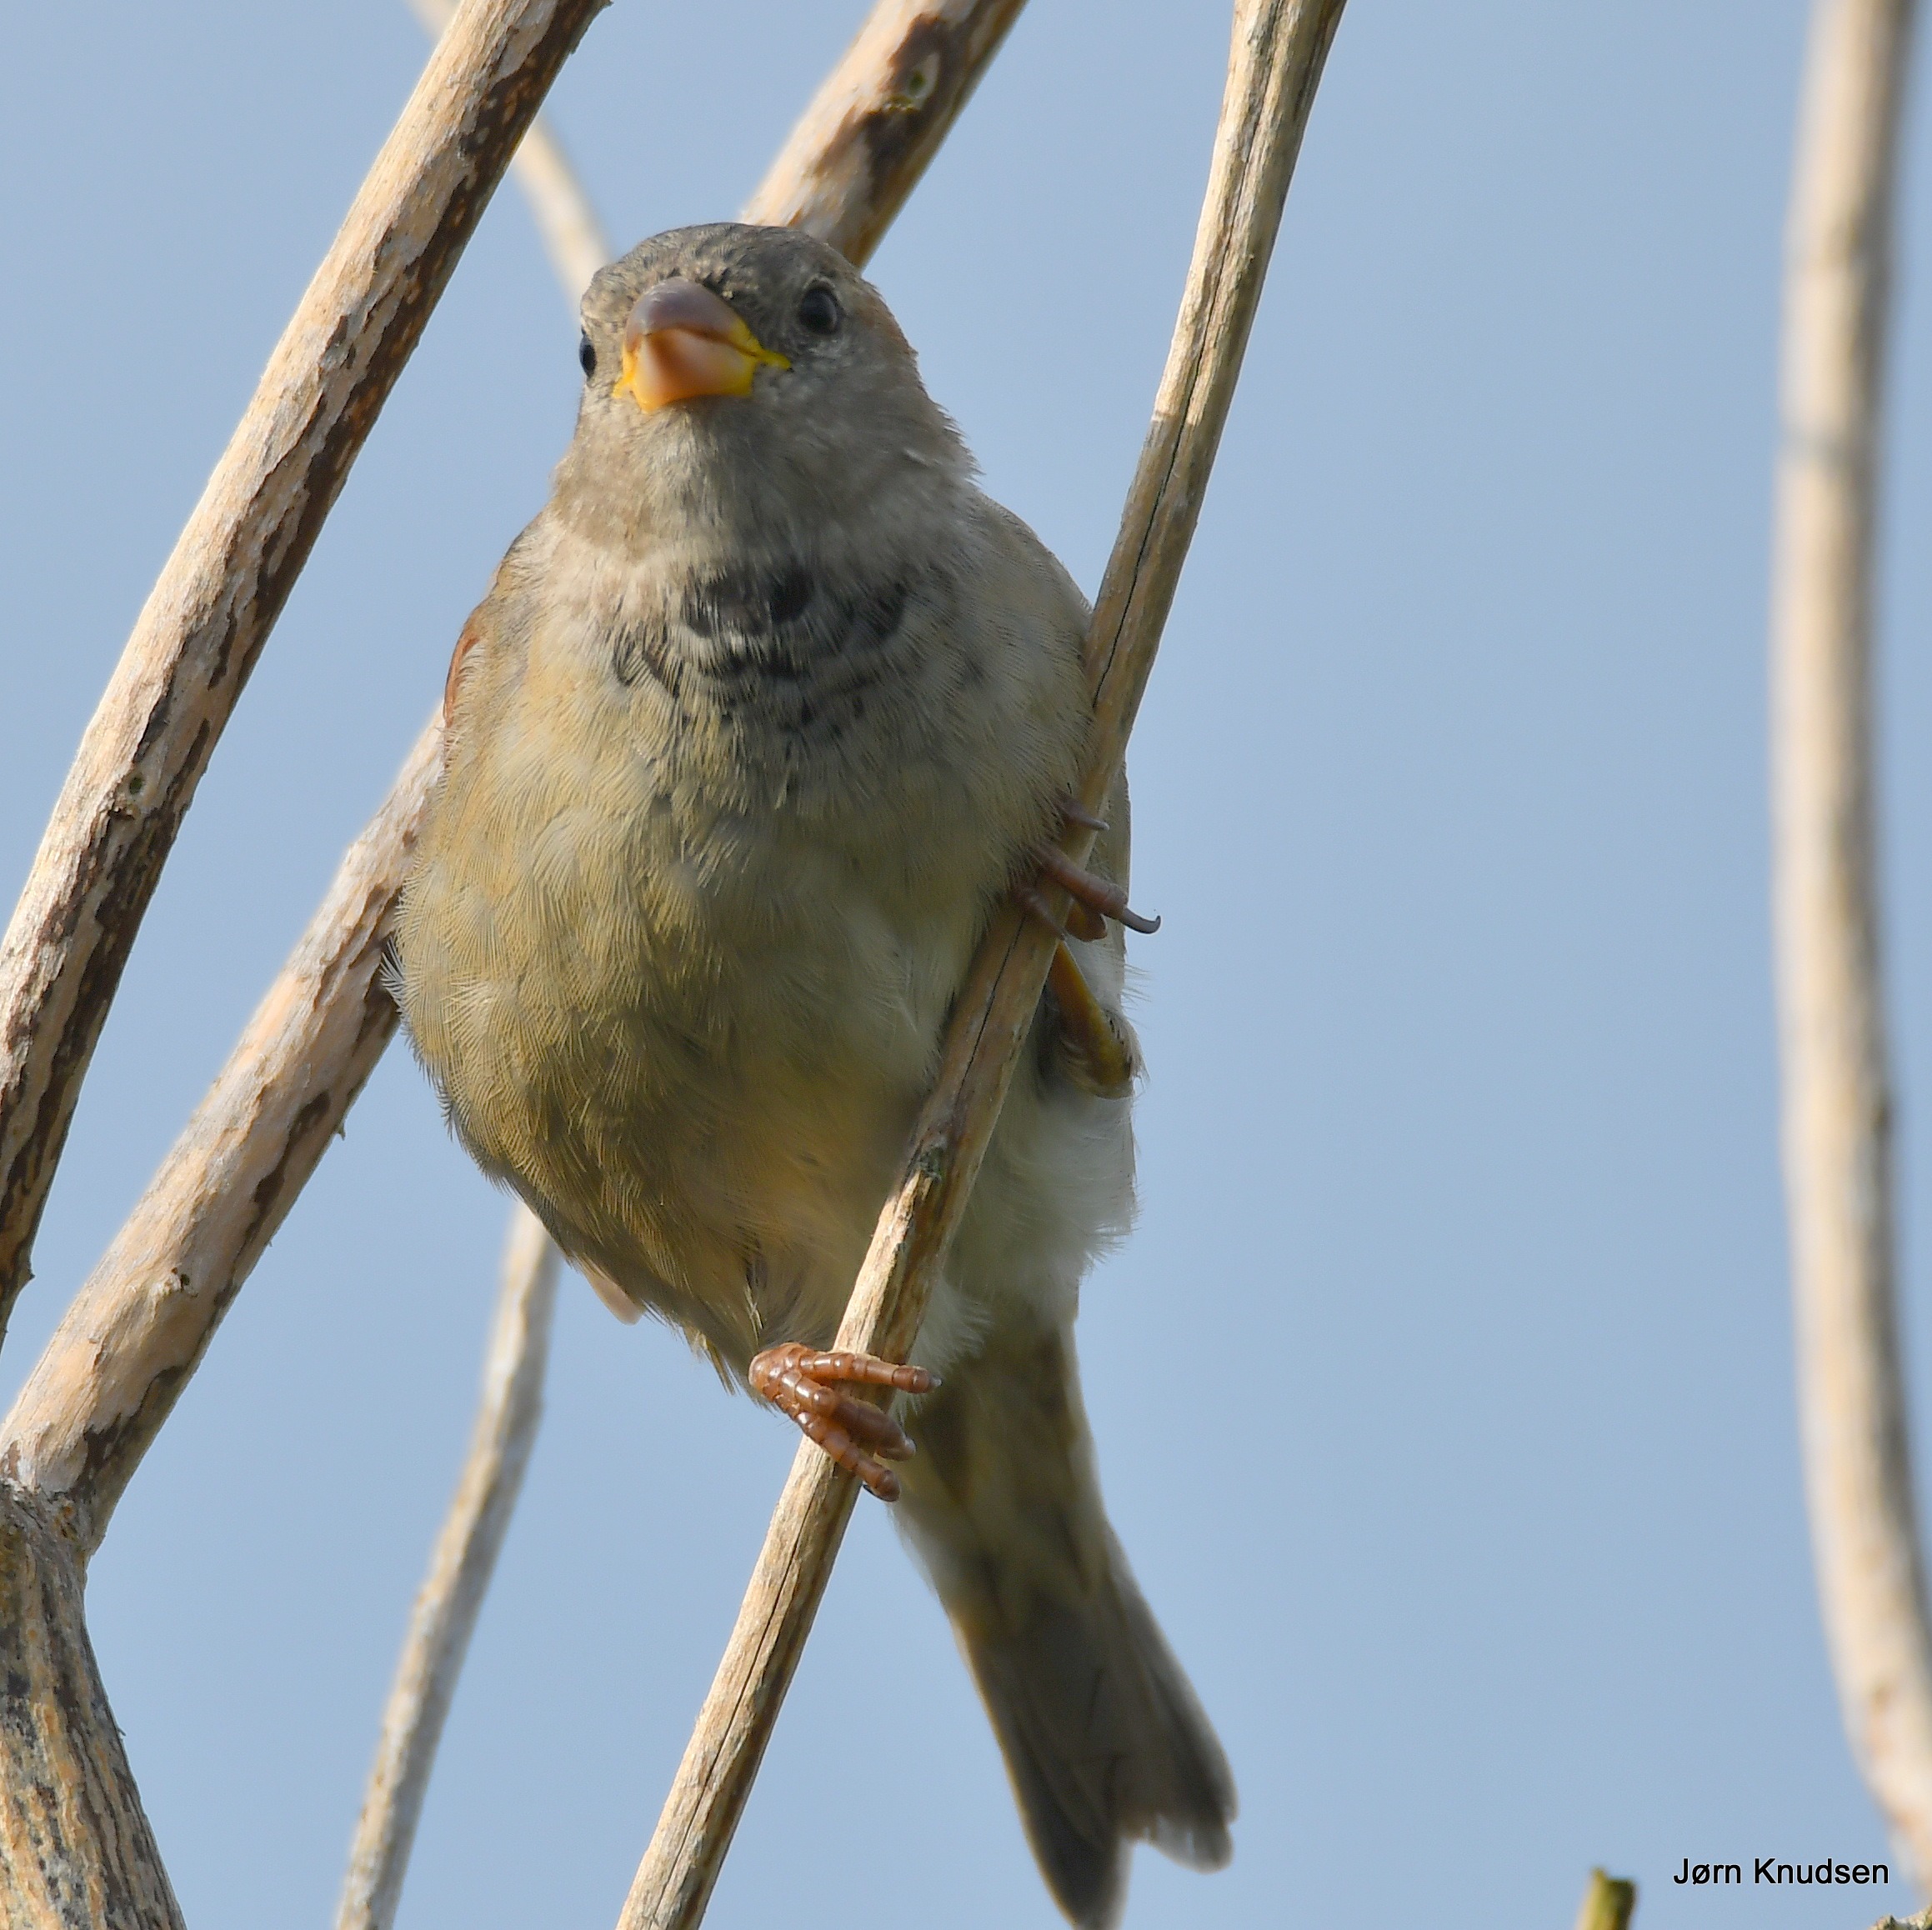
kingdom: Animalia
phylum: Chordata
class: Aves
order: Passeriformes
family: Passeridae
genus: Passer
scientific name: Passer domesticus
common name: Gråspurv
